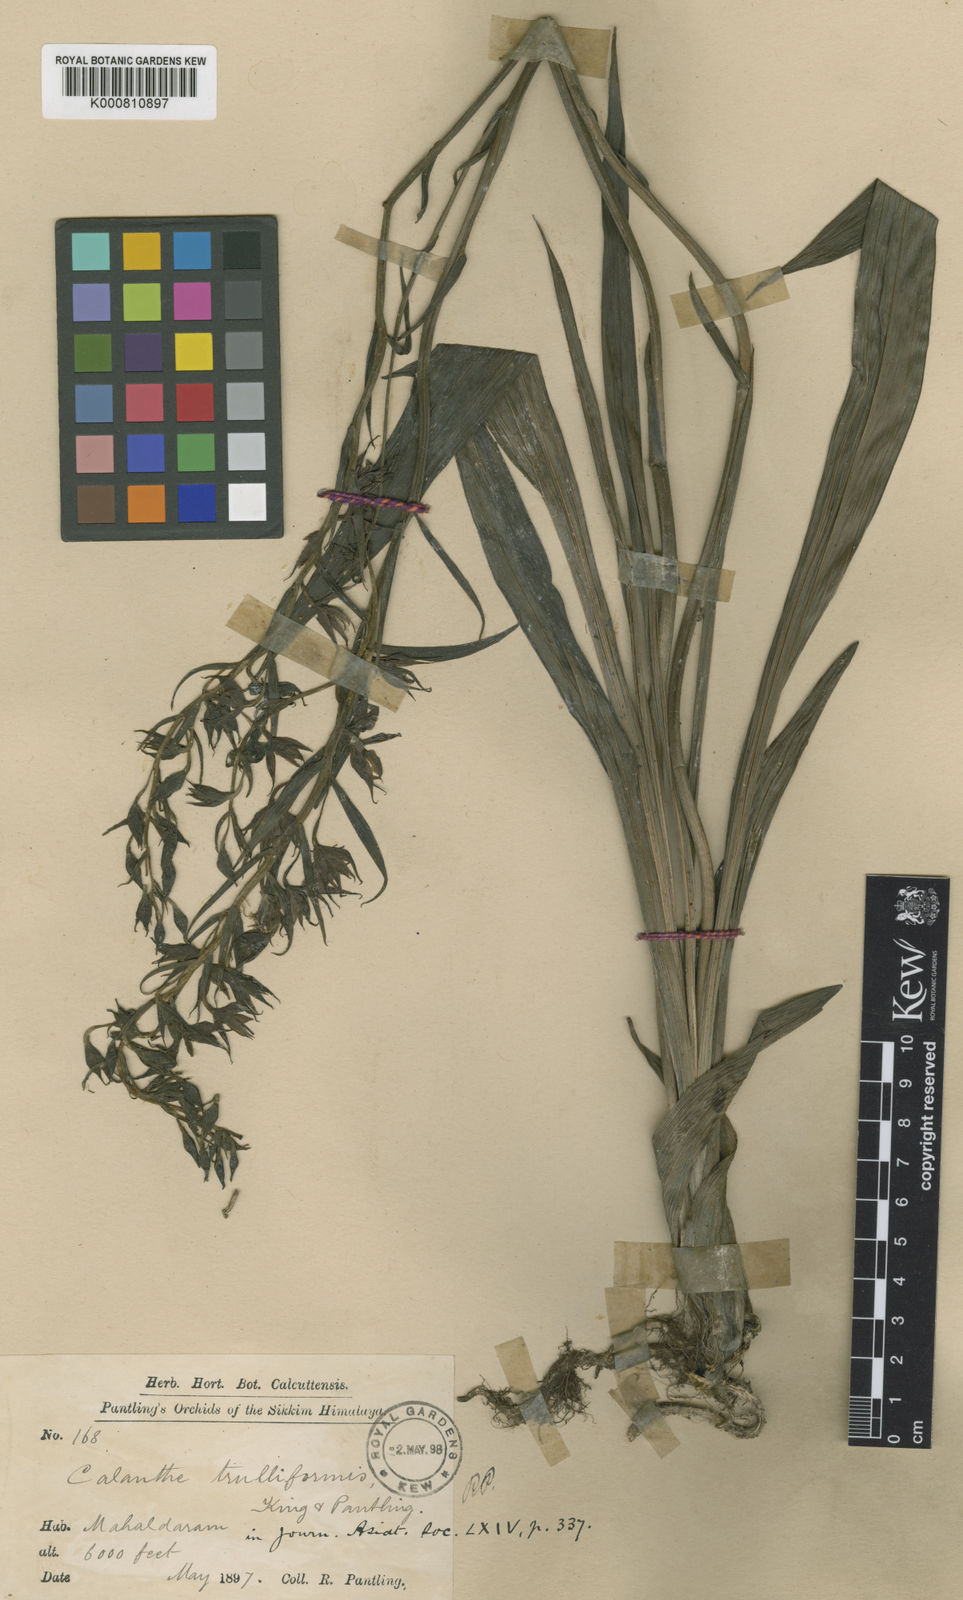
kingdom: Plantae
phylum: Tracheophyta
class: Liliopsida
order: Asparagales
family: Orchidaceae
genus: Calanthe
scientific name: Calanthe trulliformis
